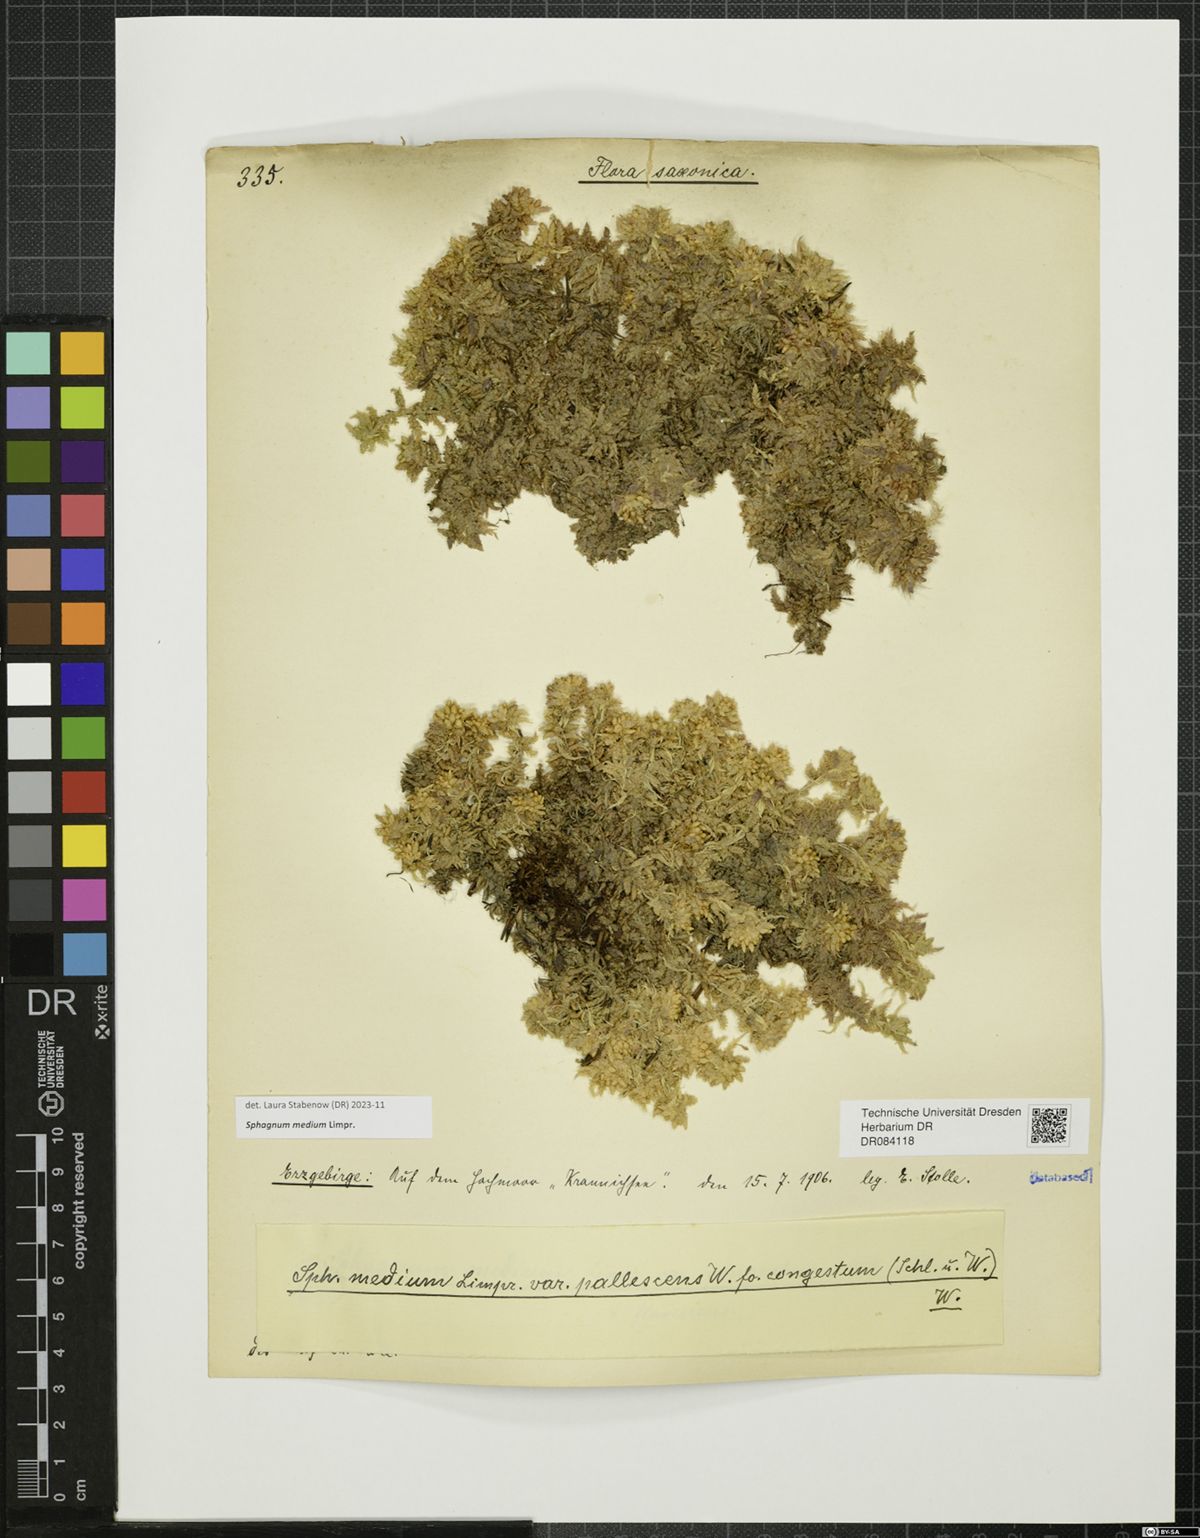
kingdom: Plantae
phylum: Bryophyta
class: Sphagnopsida
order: Sphagnales
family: Sphagnaceae
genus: Sphagnum
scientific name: Sphagnum medium
